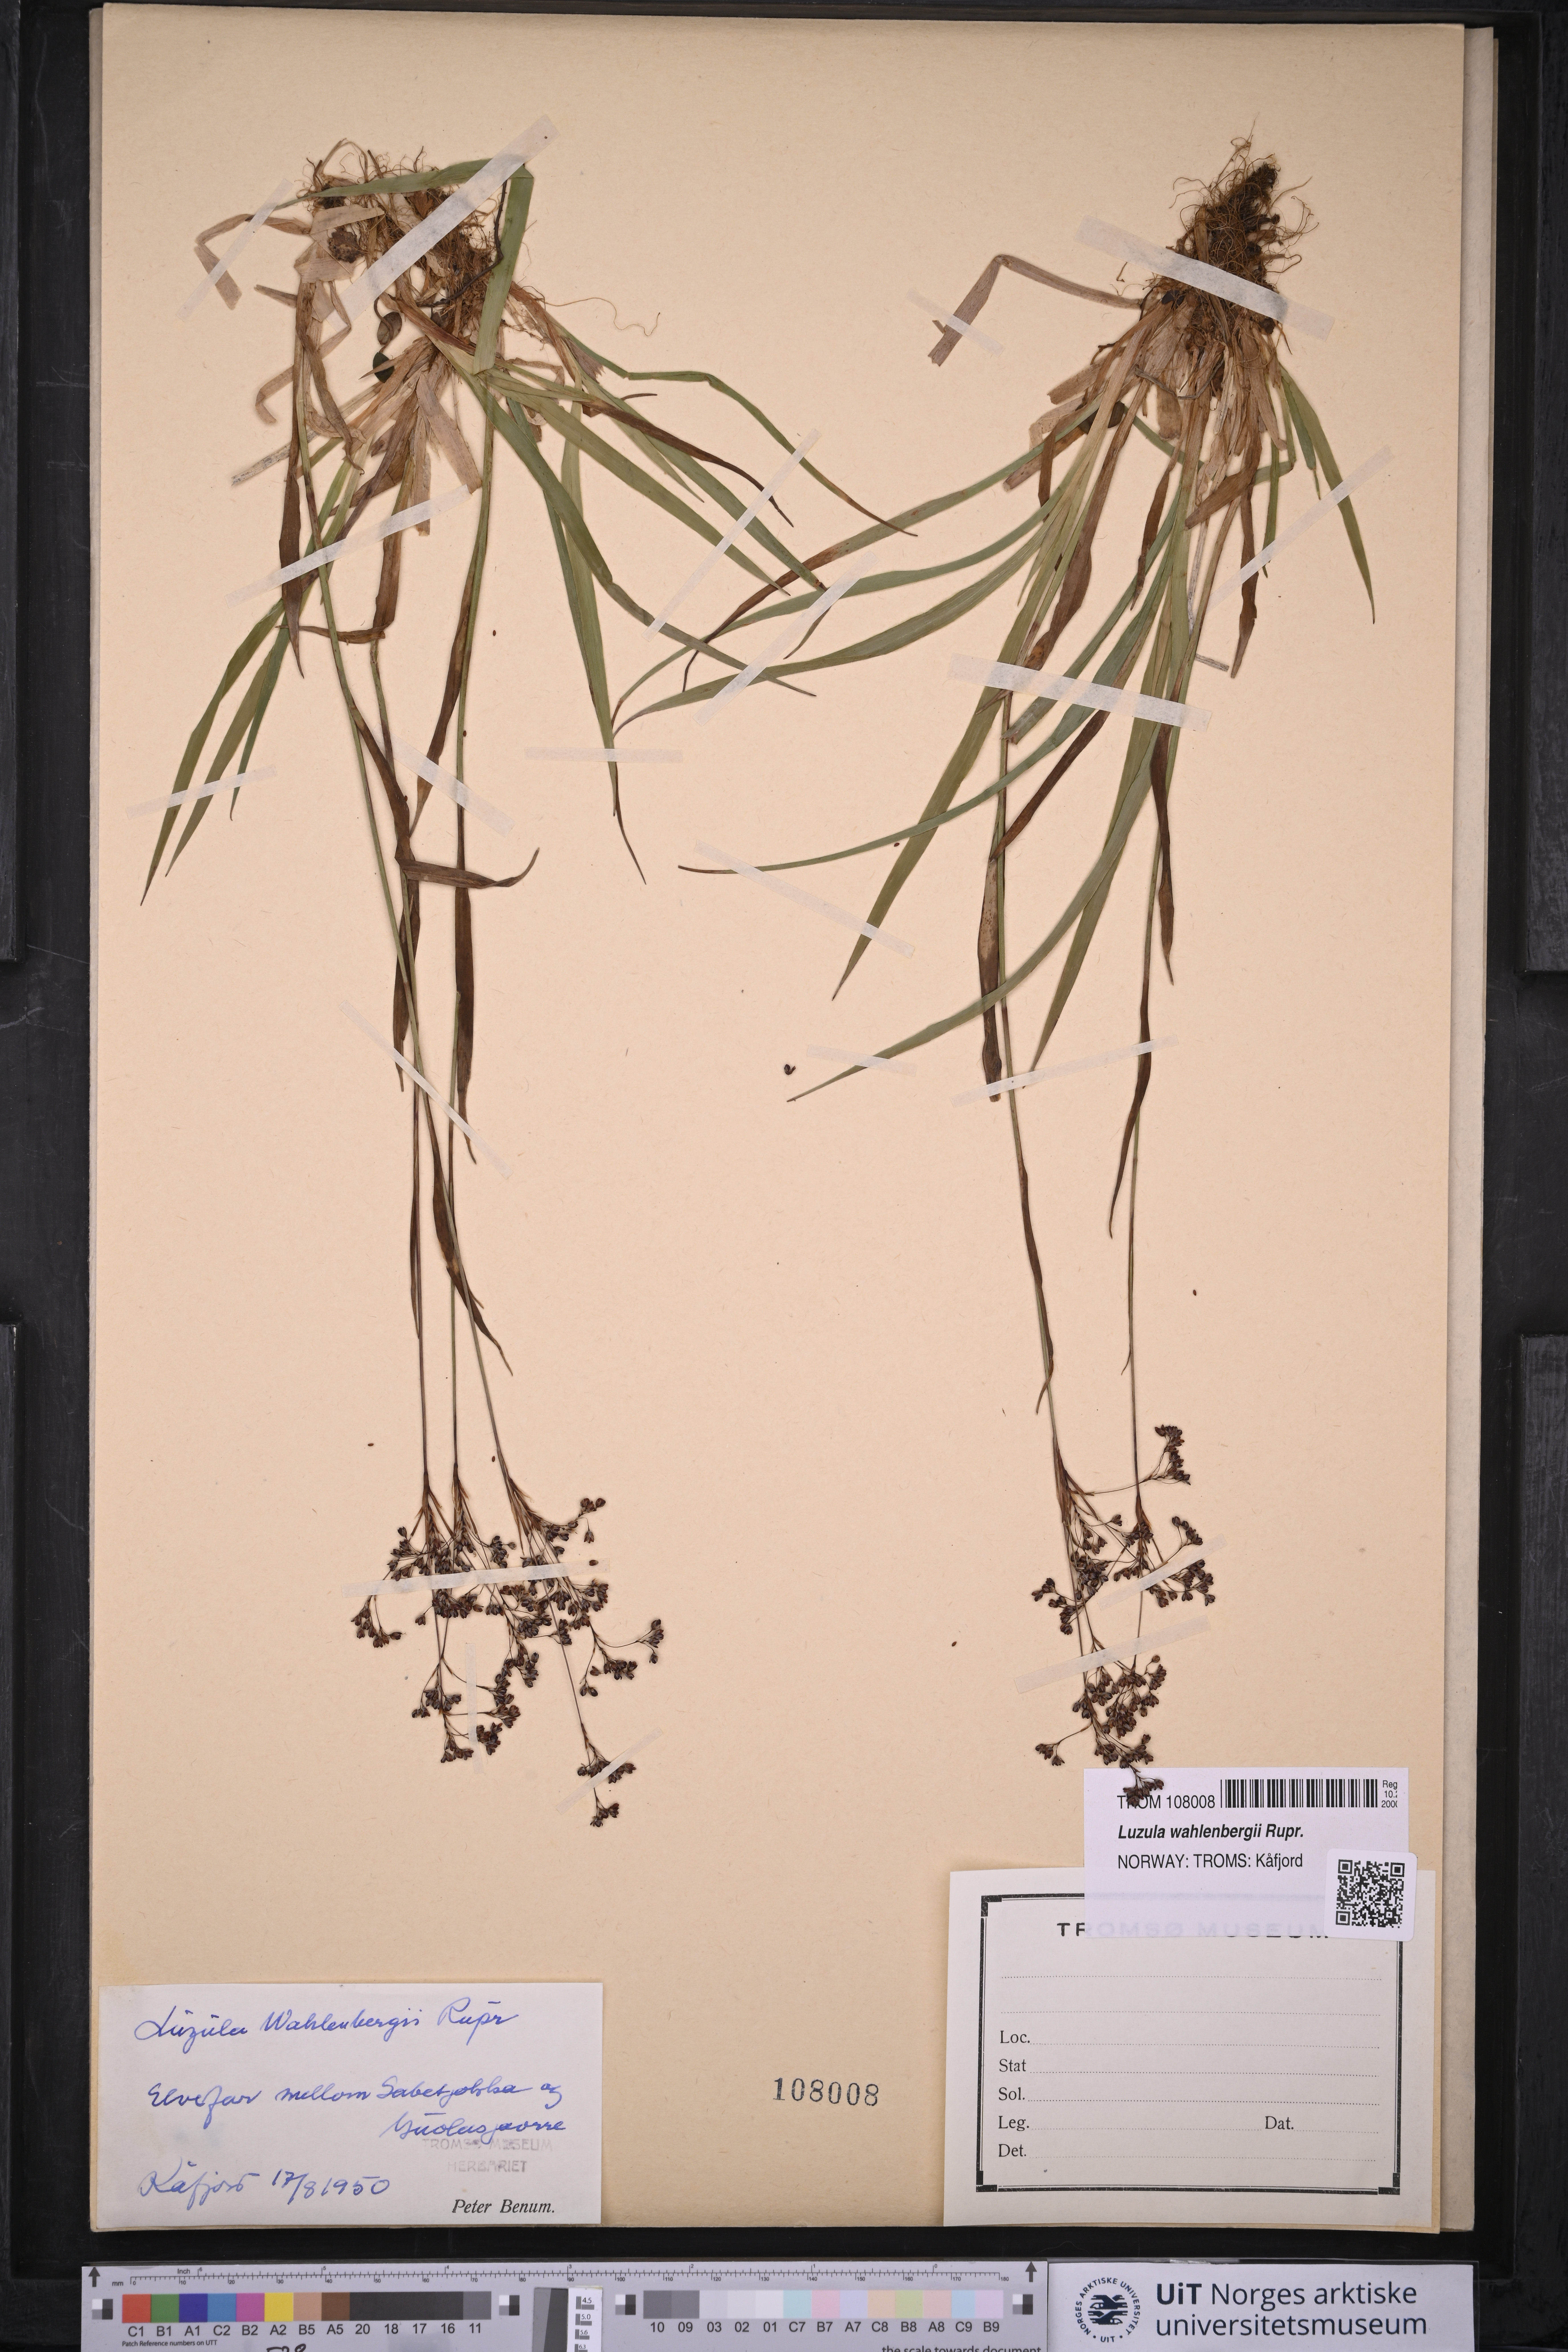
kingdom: Plantae
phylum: Tracheophyta
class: Liliopsida
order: Poales
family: Juncaceae
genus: Luzula
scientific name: Luzula wahlenbergii
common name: Wahlenberg's wood-rush
